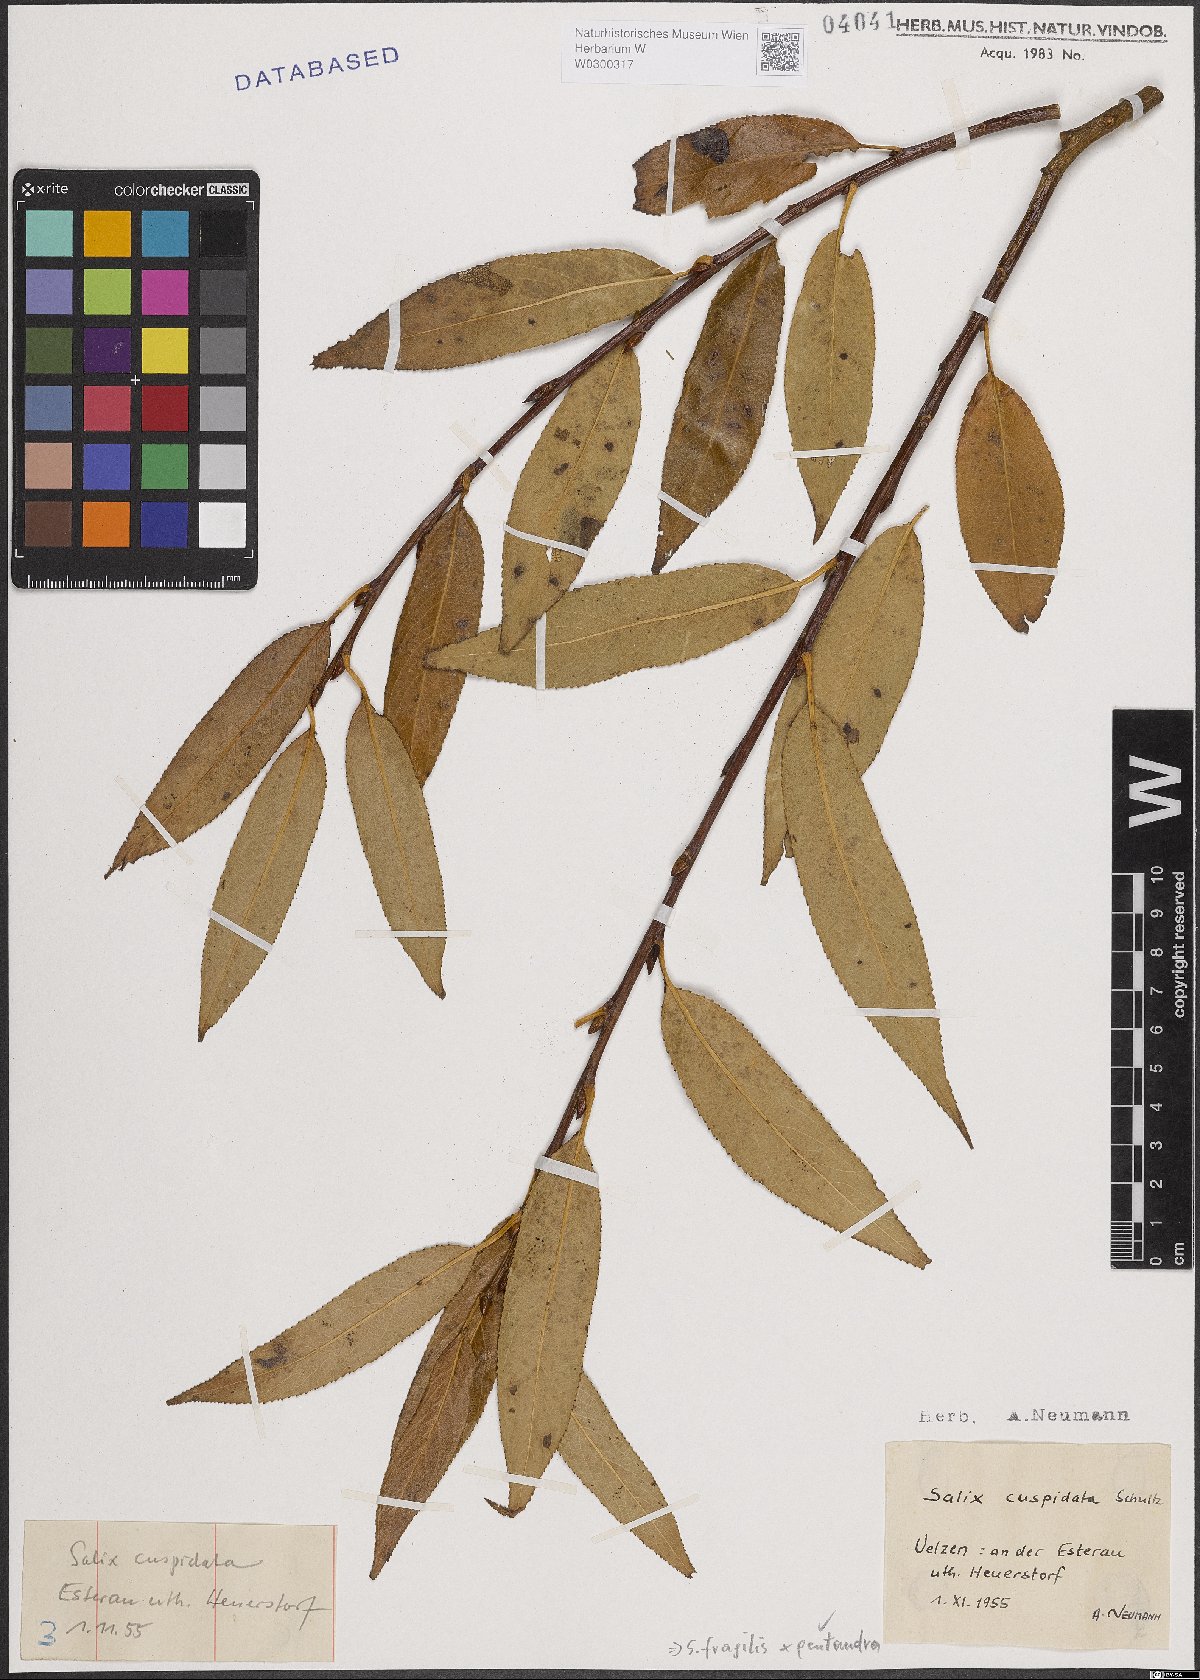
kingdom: Plantae
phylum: Tracheophyta
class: Magnoliopsida
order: Malpighiales
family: Salicaceae
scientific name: Salicaceae
